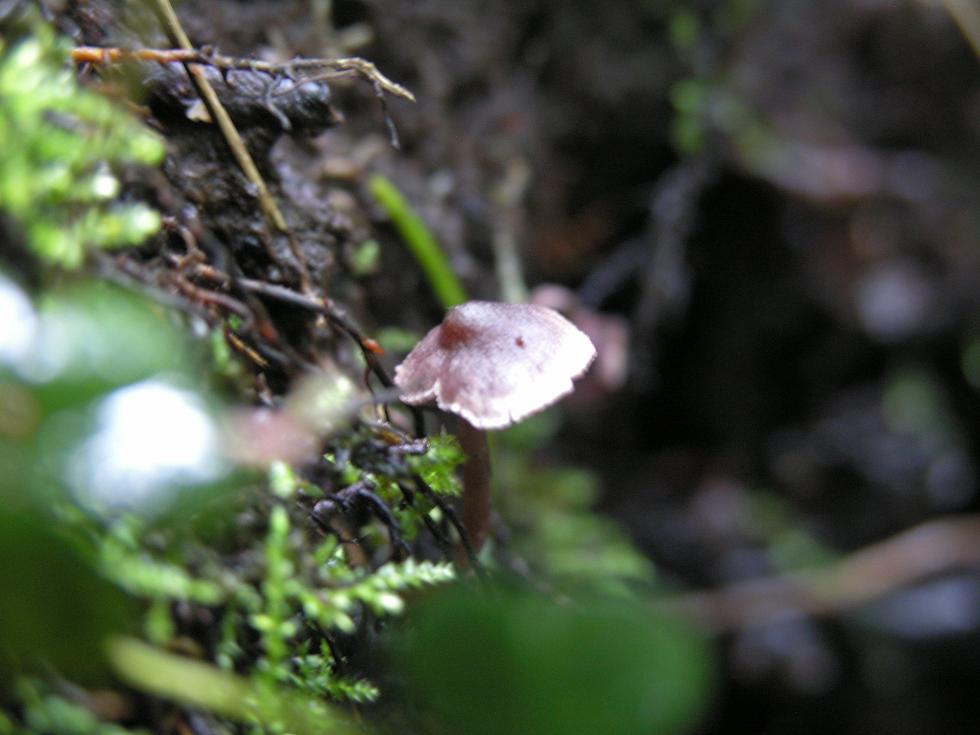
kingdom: Fungi
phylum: Basidiomycota
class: Agaricomycetes
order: Agaricales
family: Cortinariaceae
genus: Cortinarius
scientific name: Cortinarius bibulus
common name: smuk slørhat
